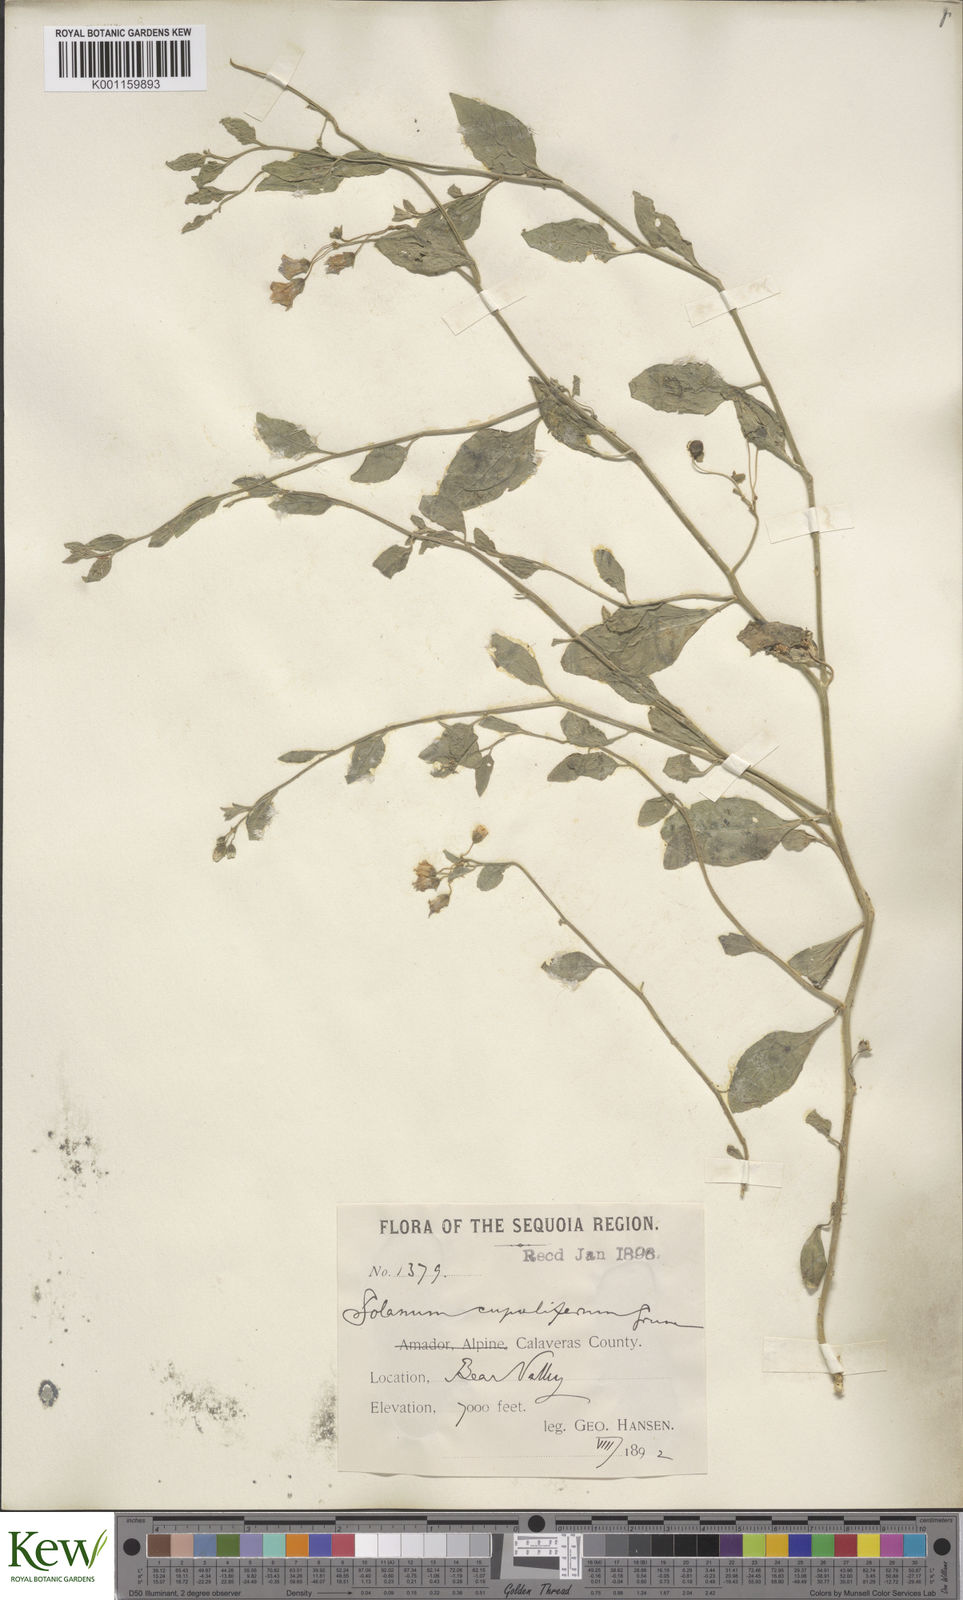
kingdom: Plantae
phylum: Tracheophyta
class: Magnoliopsida
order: Solanales
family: Solanaceae
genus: Solanum
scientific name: Solanum umbelliferum
